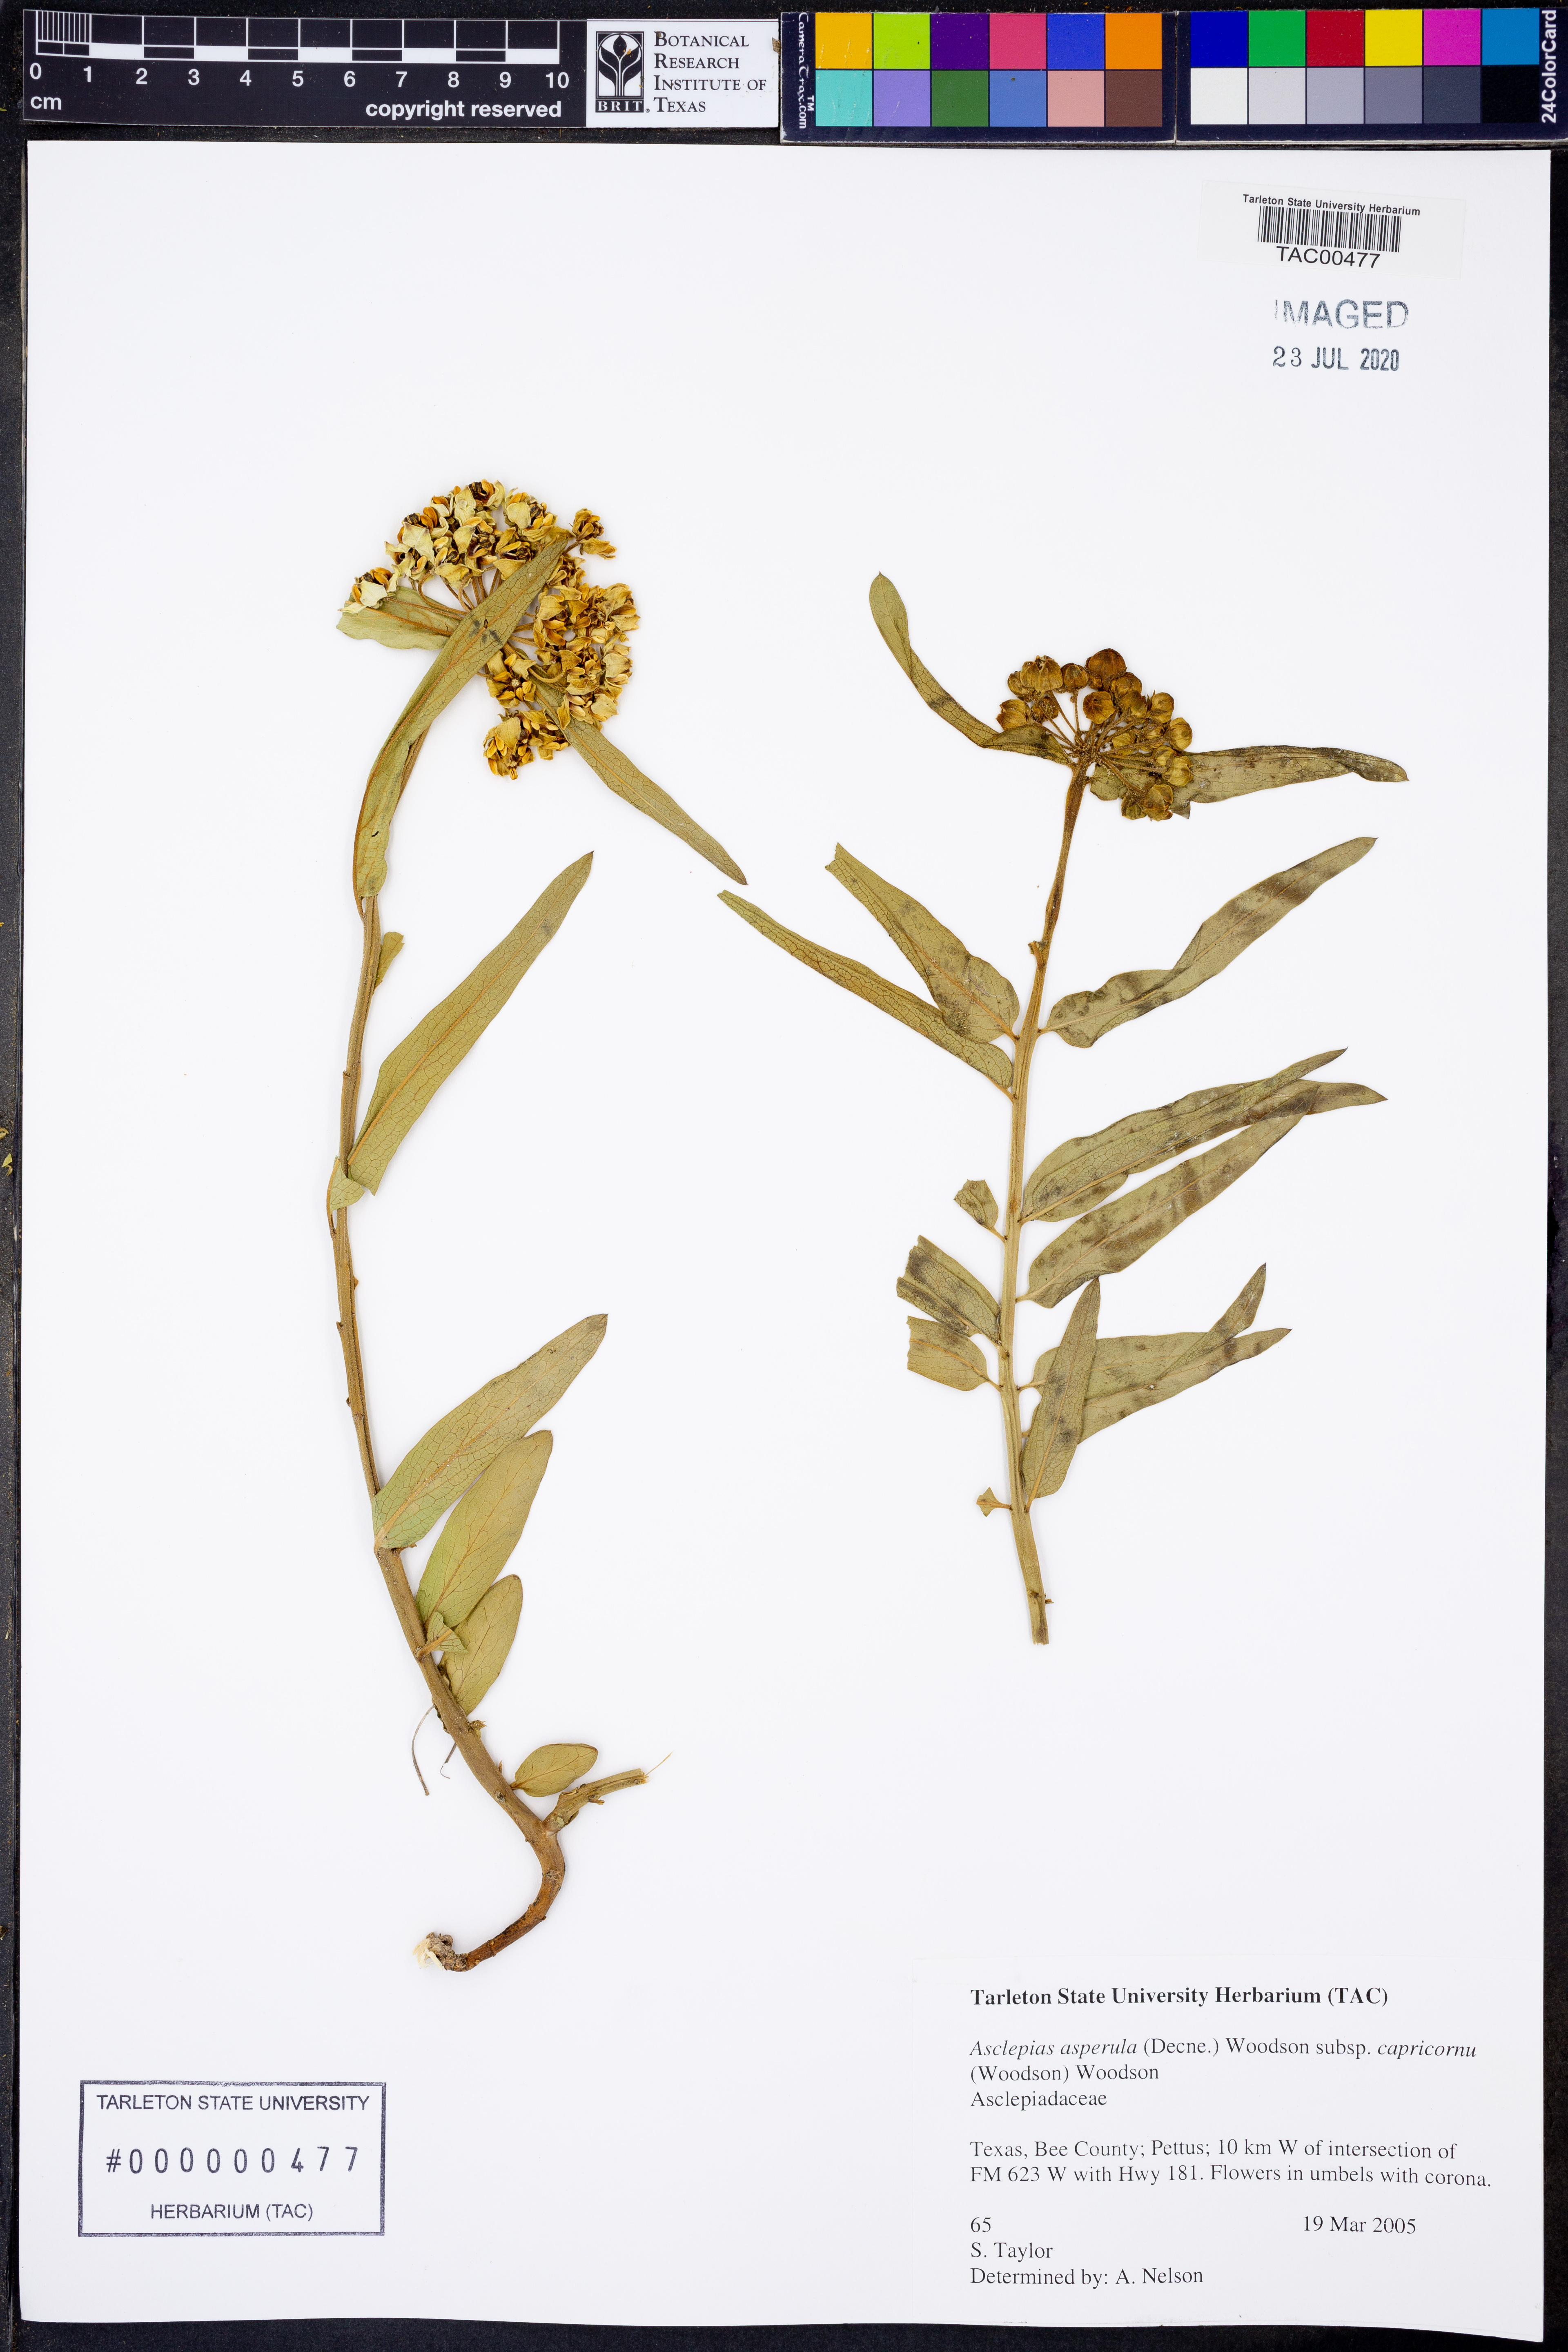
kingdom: Plantae
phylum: Tracheophyta
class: Magnoliopsida
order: Gentianales
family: Apocynaceae
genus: Asclepias
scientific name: Asclepias asperula
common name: Antelope horns
